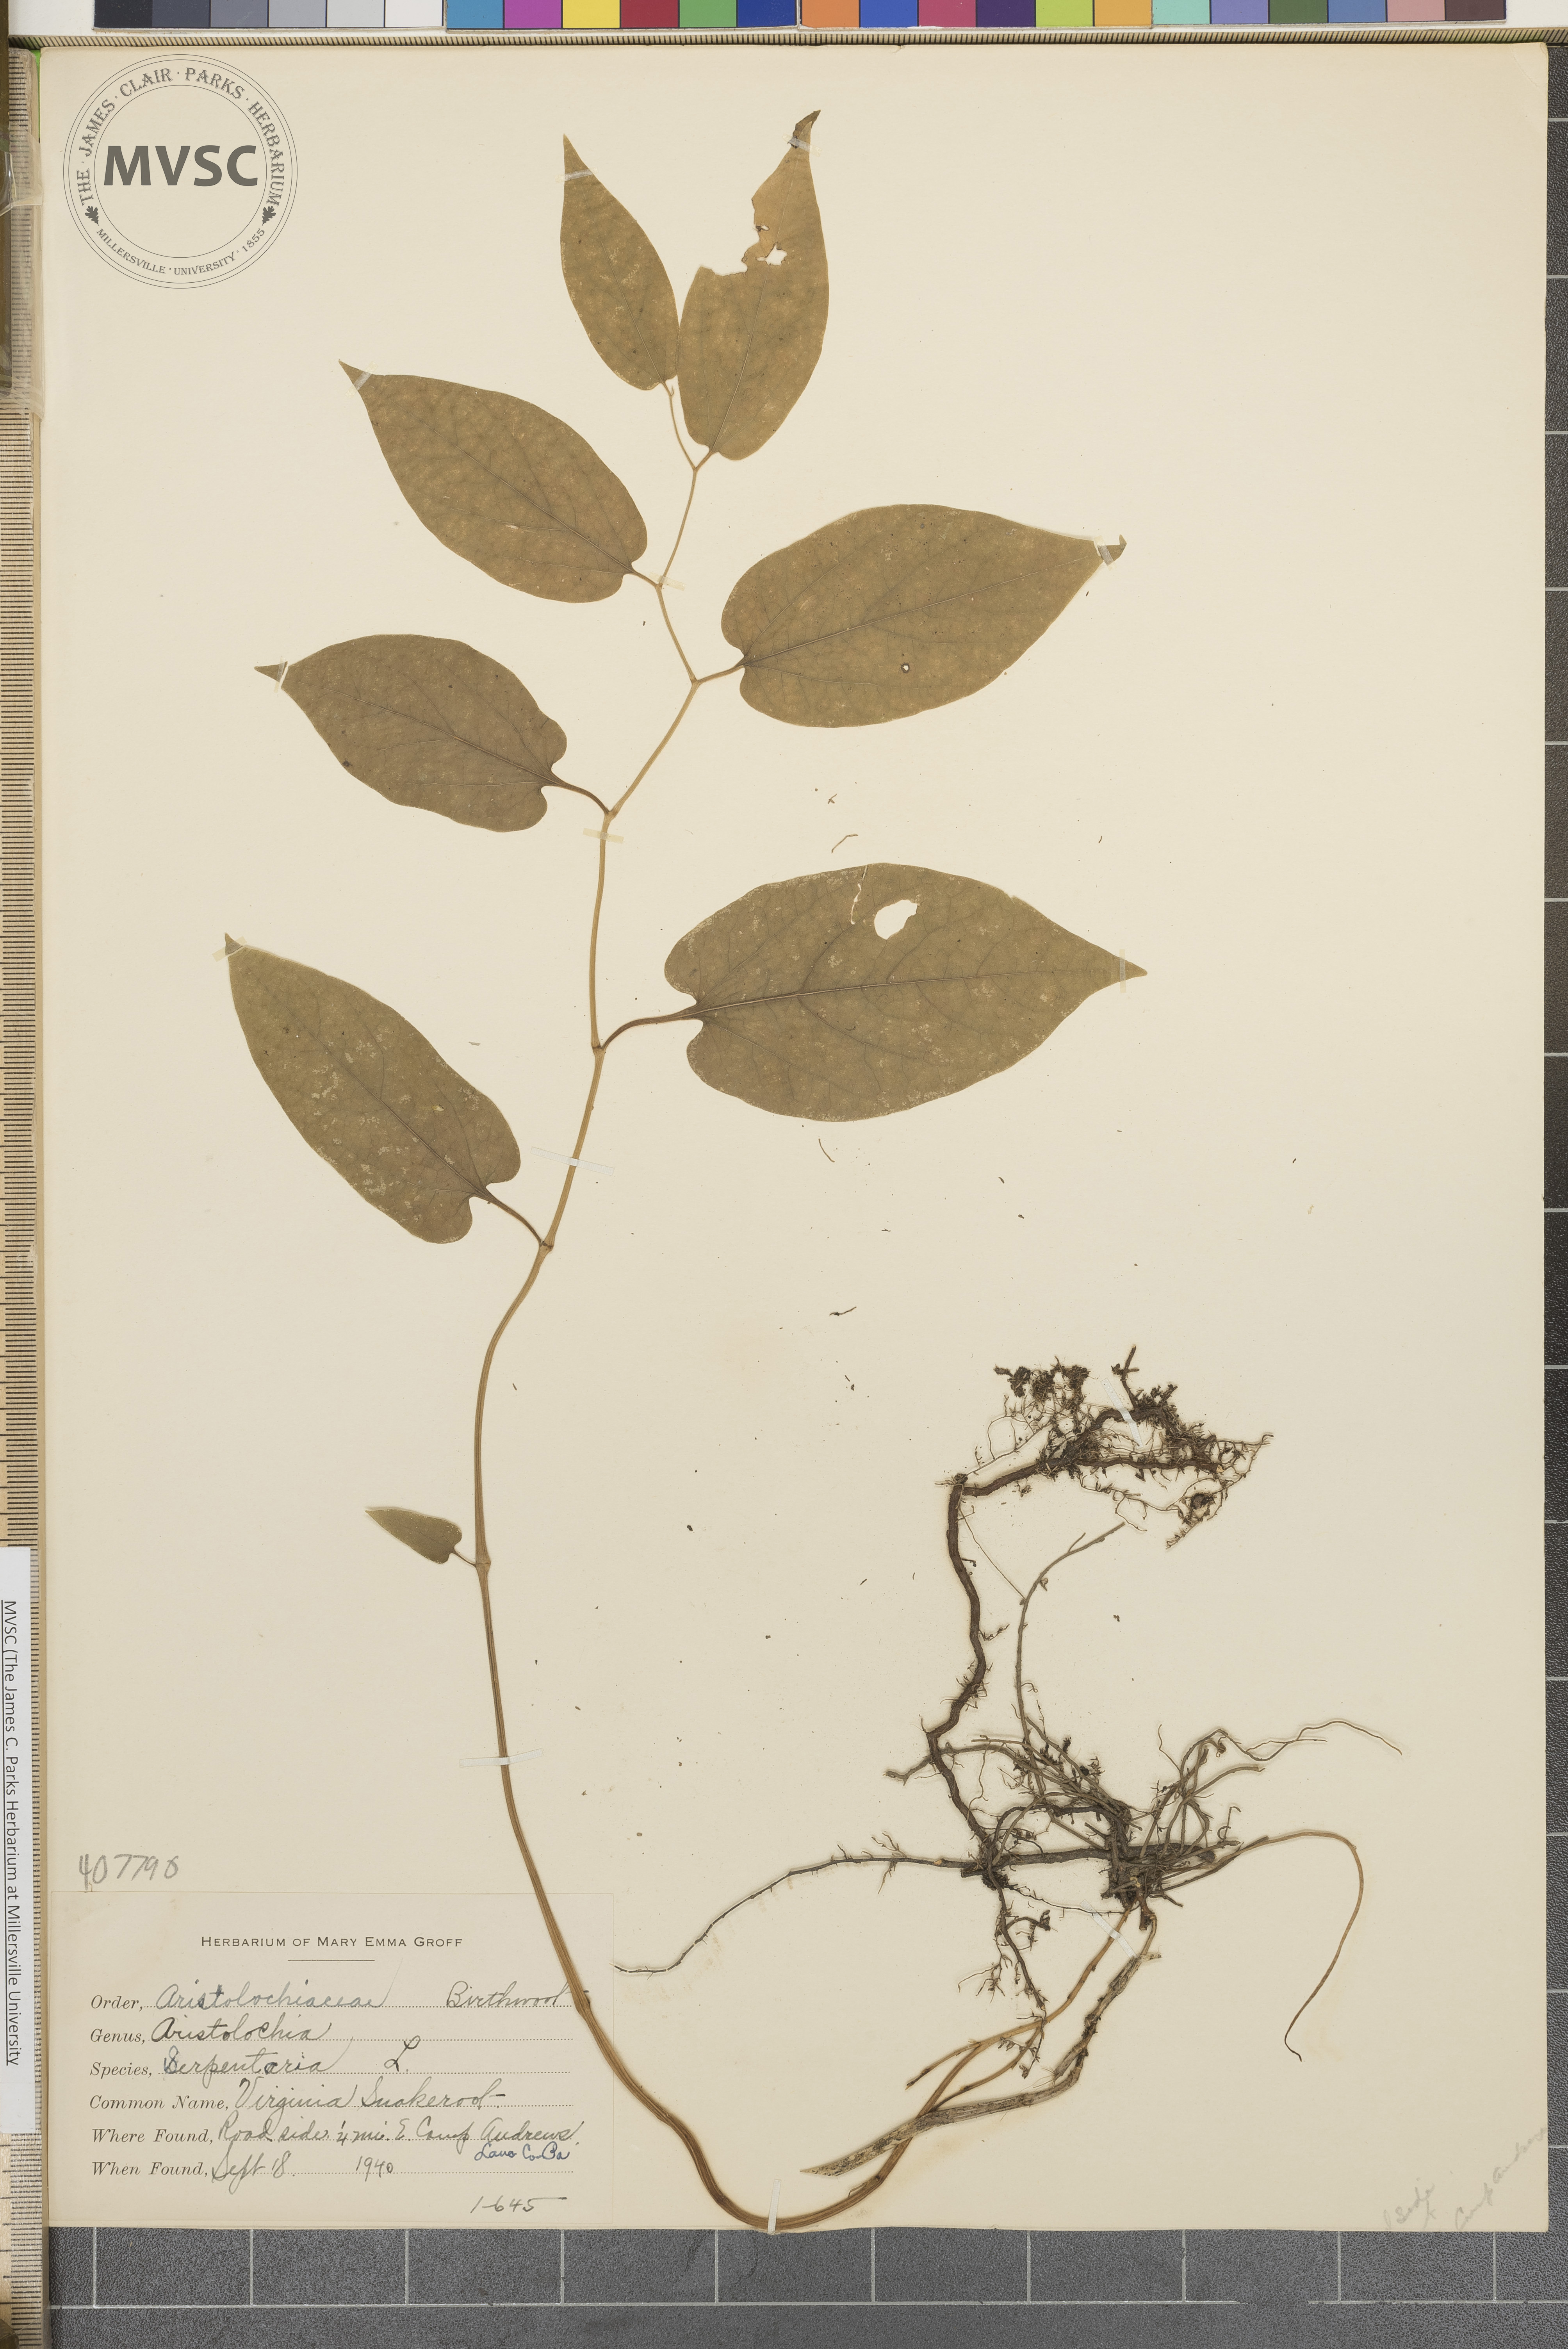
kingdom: Plantae
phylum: Tracheophyta
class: Magnoliopsida
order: Piperales
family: Aristolochiaceae
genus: Endodeca
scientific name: Endodeca serpentaria
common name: Virginia Snakeroot
